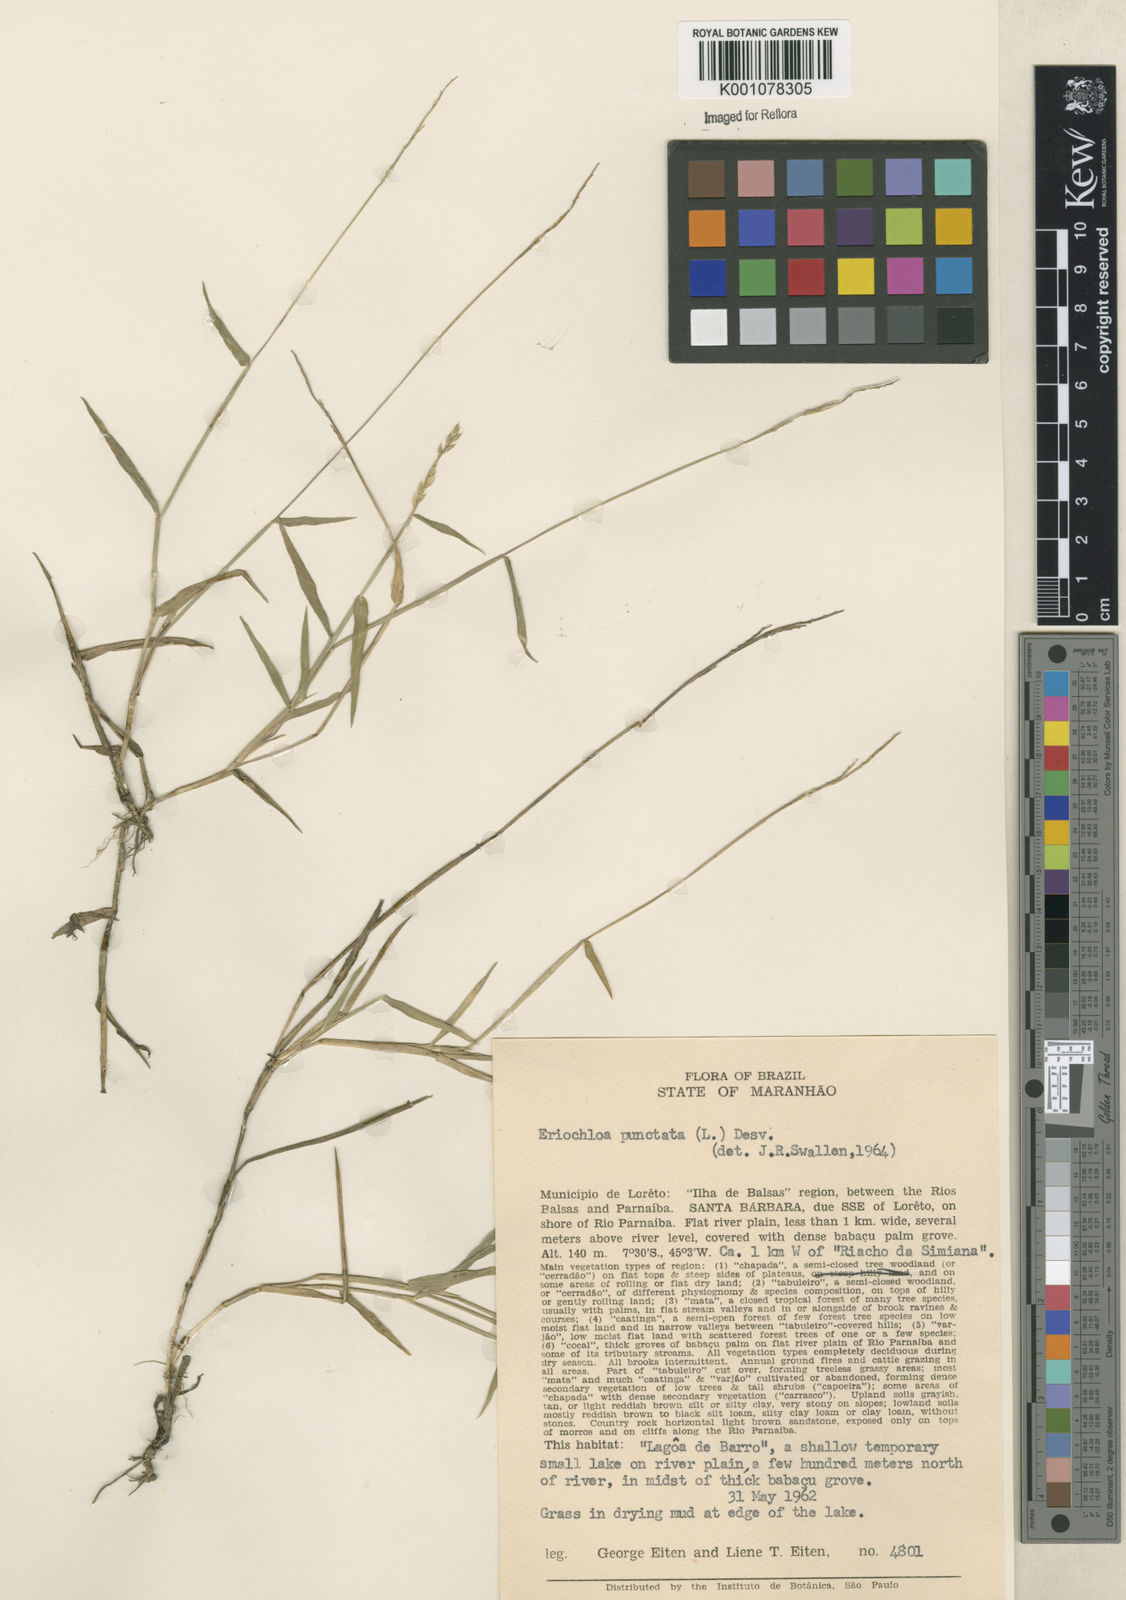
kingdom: Plantae
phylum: Tracheophyta
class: Liliopsida
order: Poales
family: Poaceae
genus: Eriochloa
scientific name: Eriochloa punctata
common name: Louisiana cupgrass
